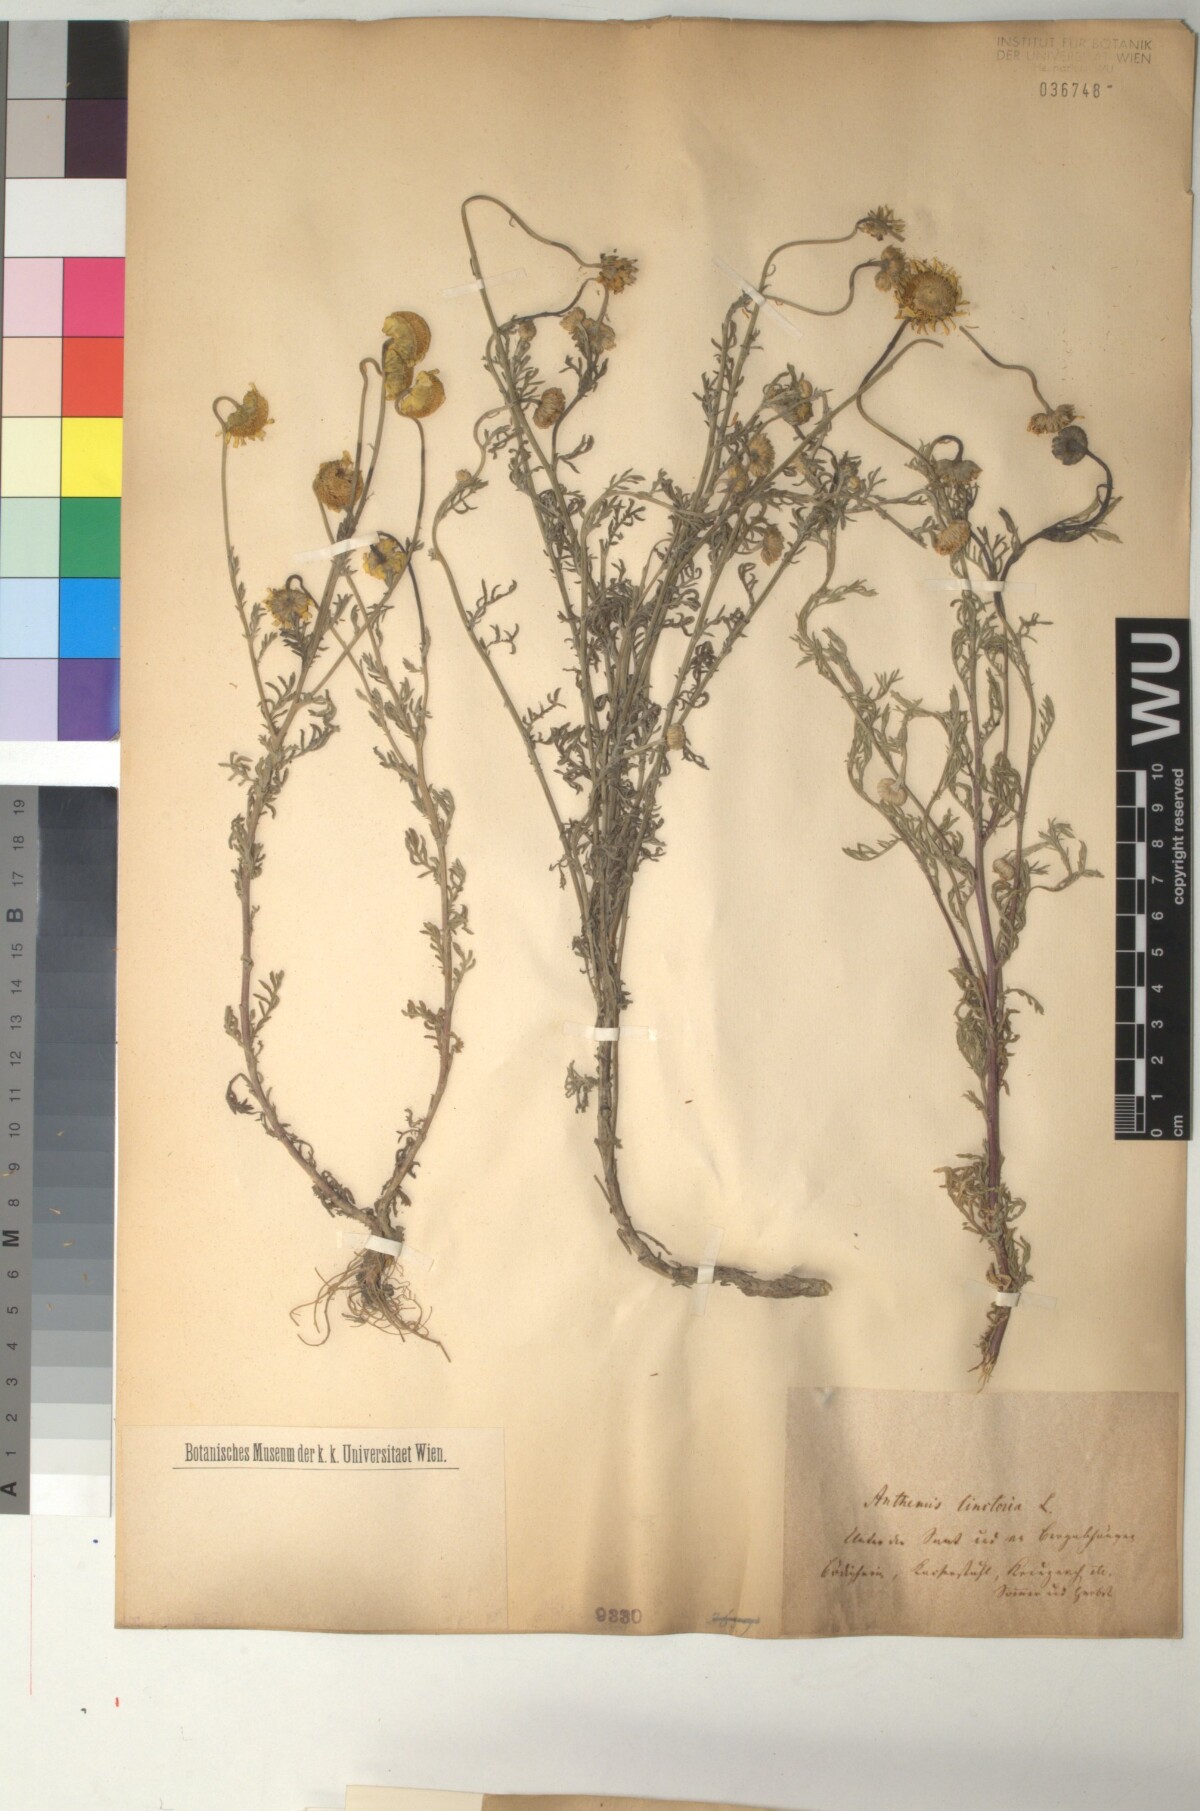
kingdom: Plantae
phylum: Tracheophyta
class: Magnoliopsida
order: Asterales
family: Asteraceae
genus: Cota
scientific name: Cota tinctoria
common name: Golden chamomile
